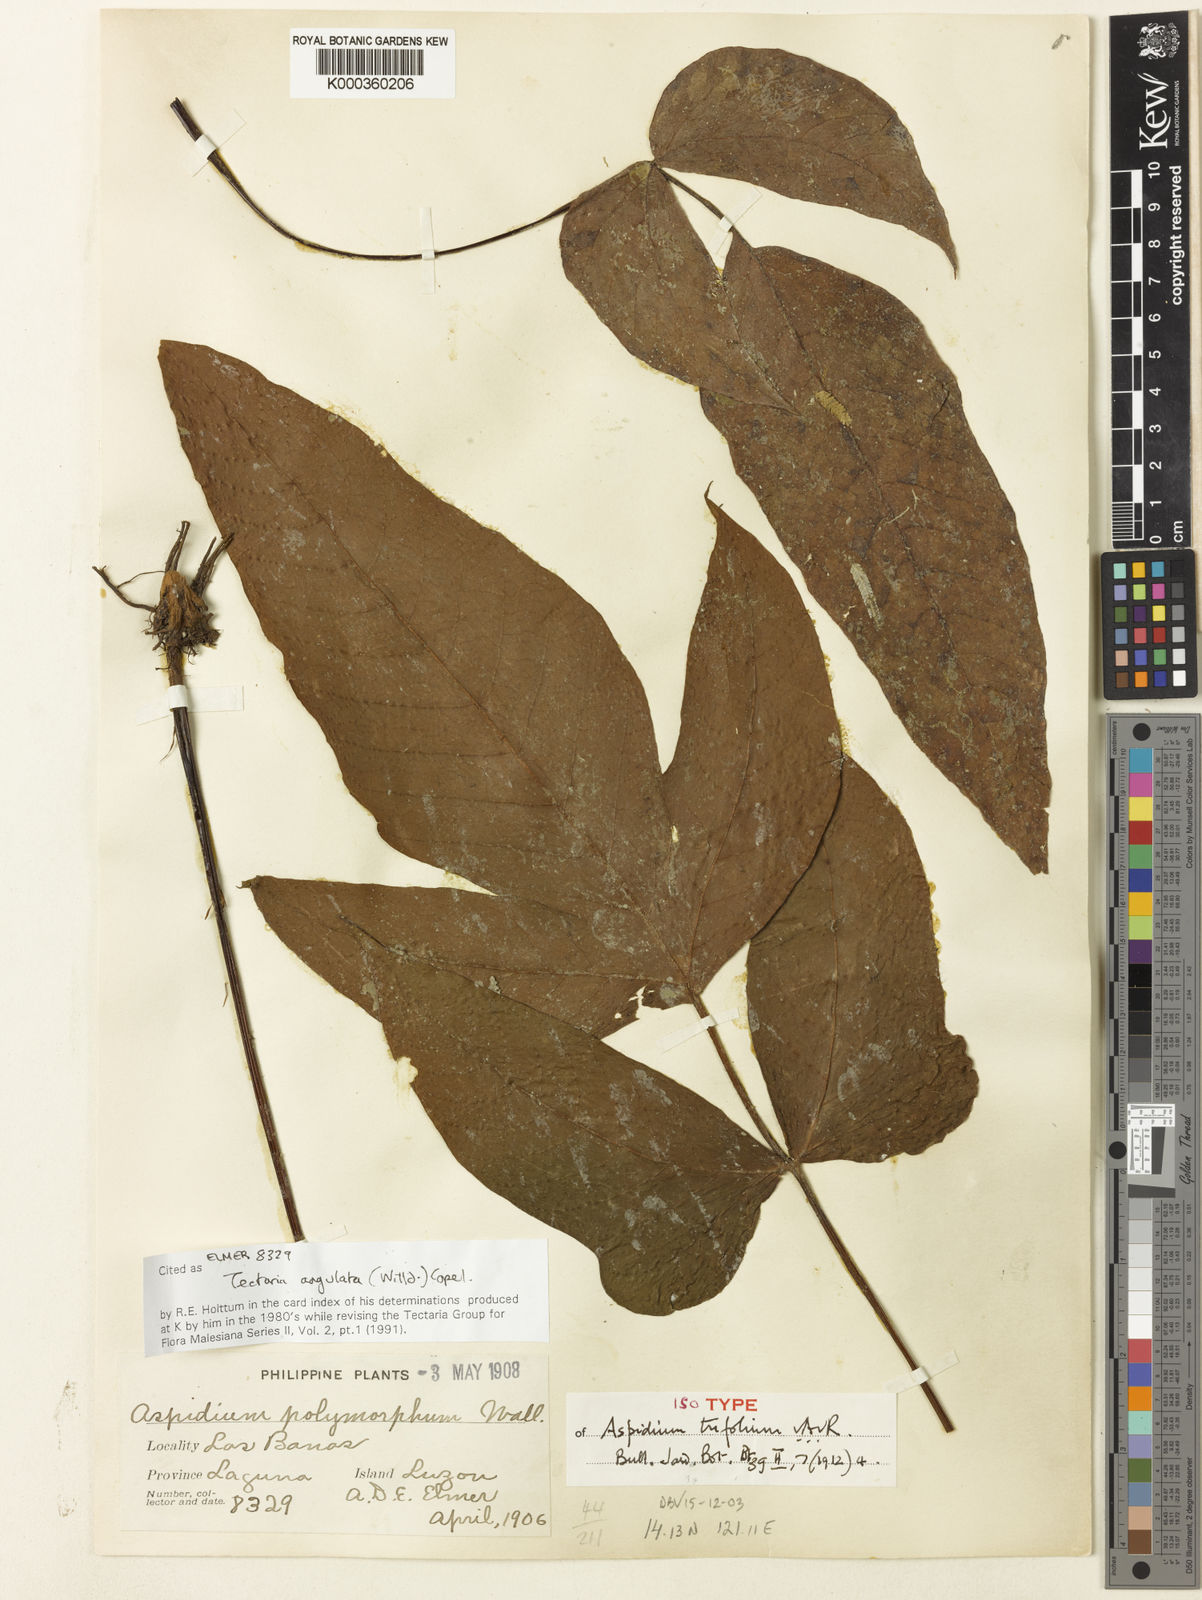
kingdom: Plantae
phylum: Tracheophyta
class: Polypodiopsida
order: Polypodiales
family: Tectariaceae
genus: Tectaria
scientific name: Tectaria angulata
